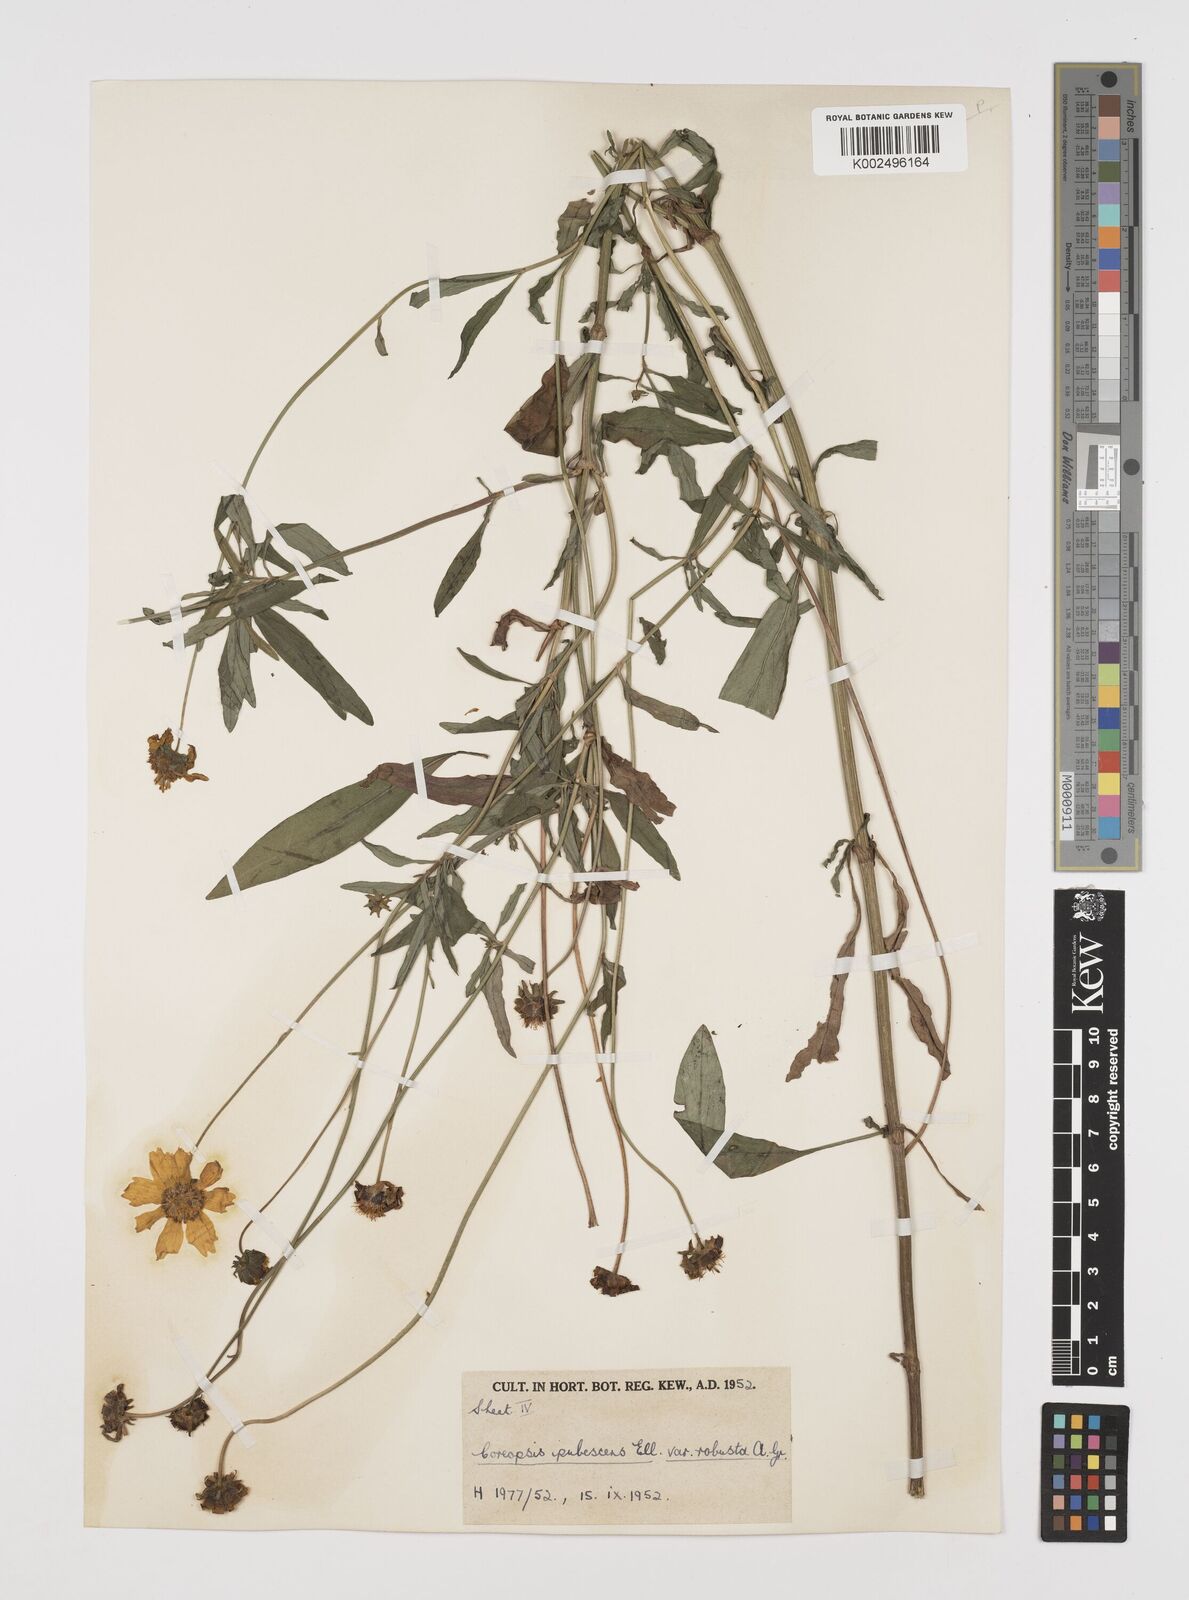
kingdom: Plantae
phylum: Tracheophyta
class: Magnoliopsida
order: Asterales
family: Asteraceae
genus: Coreopsis
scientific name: Coreopsis pubescens
